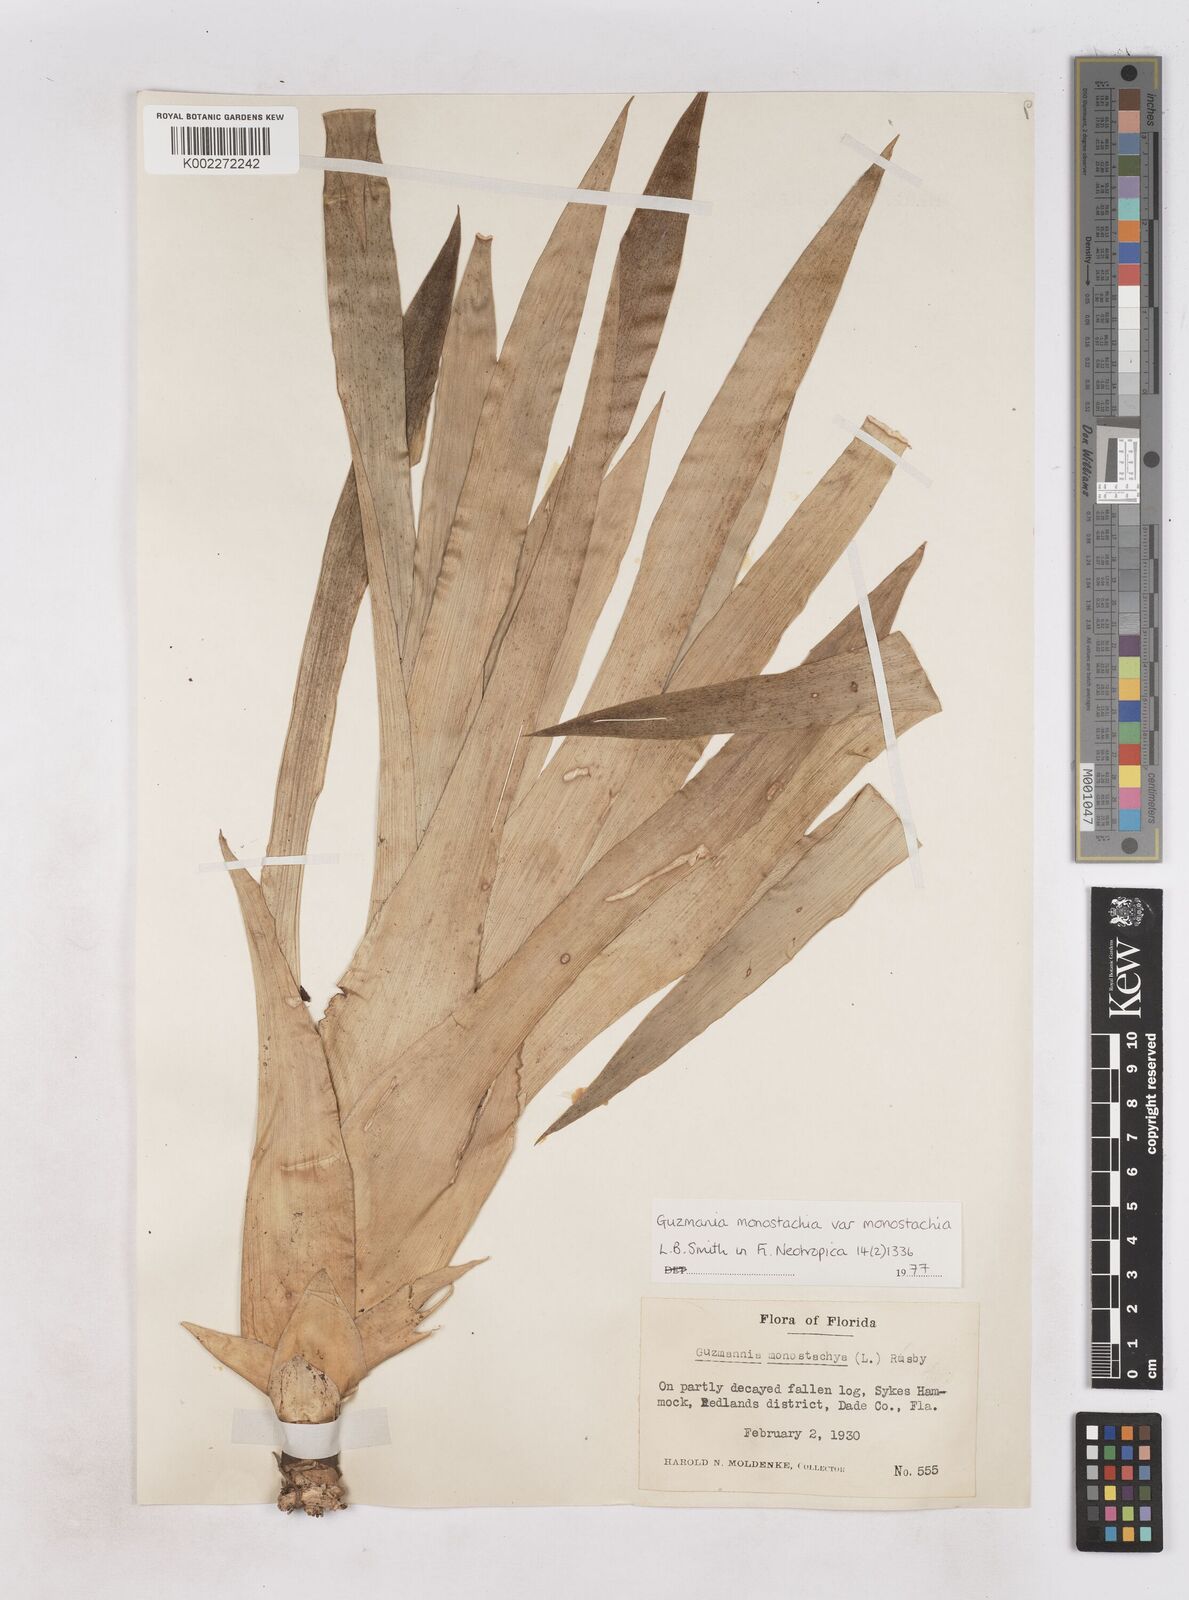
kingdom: Plantae
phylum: Tracheophyta
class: Liliopsida
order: Poales
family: Bromeliaceae
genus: Guzmania
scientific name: Guzmania monostachia
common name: West indian tufted airplant
